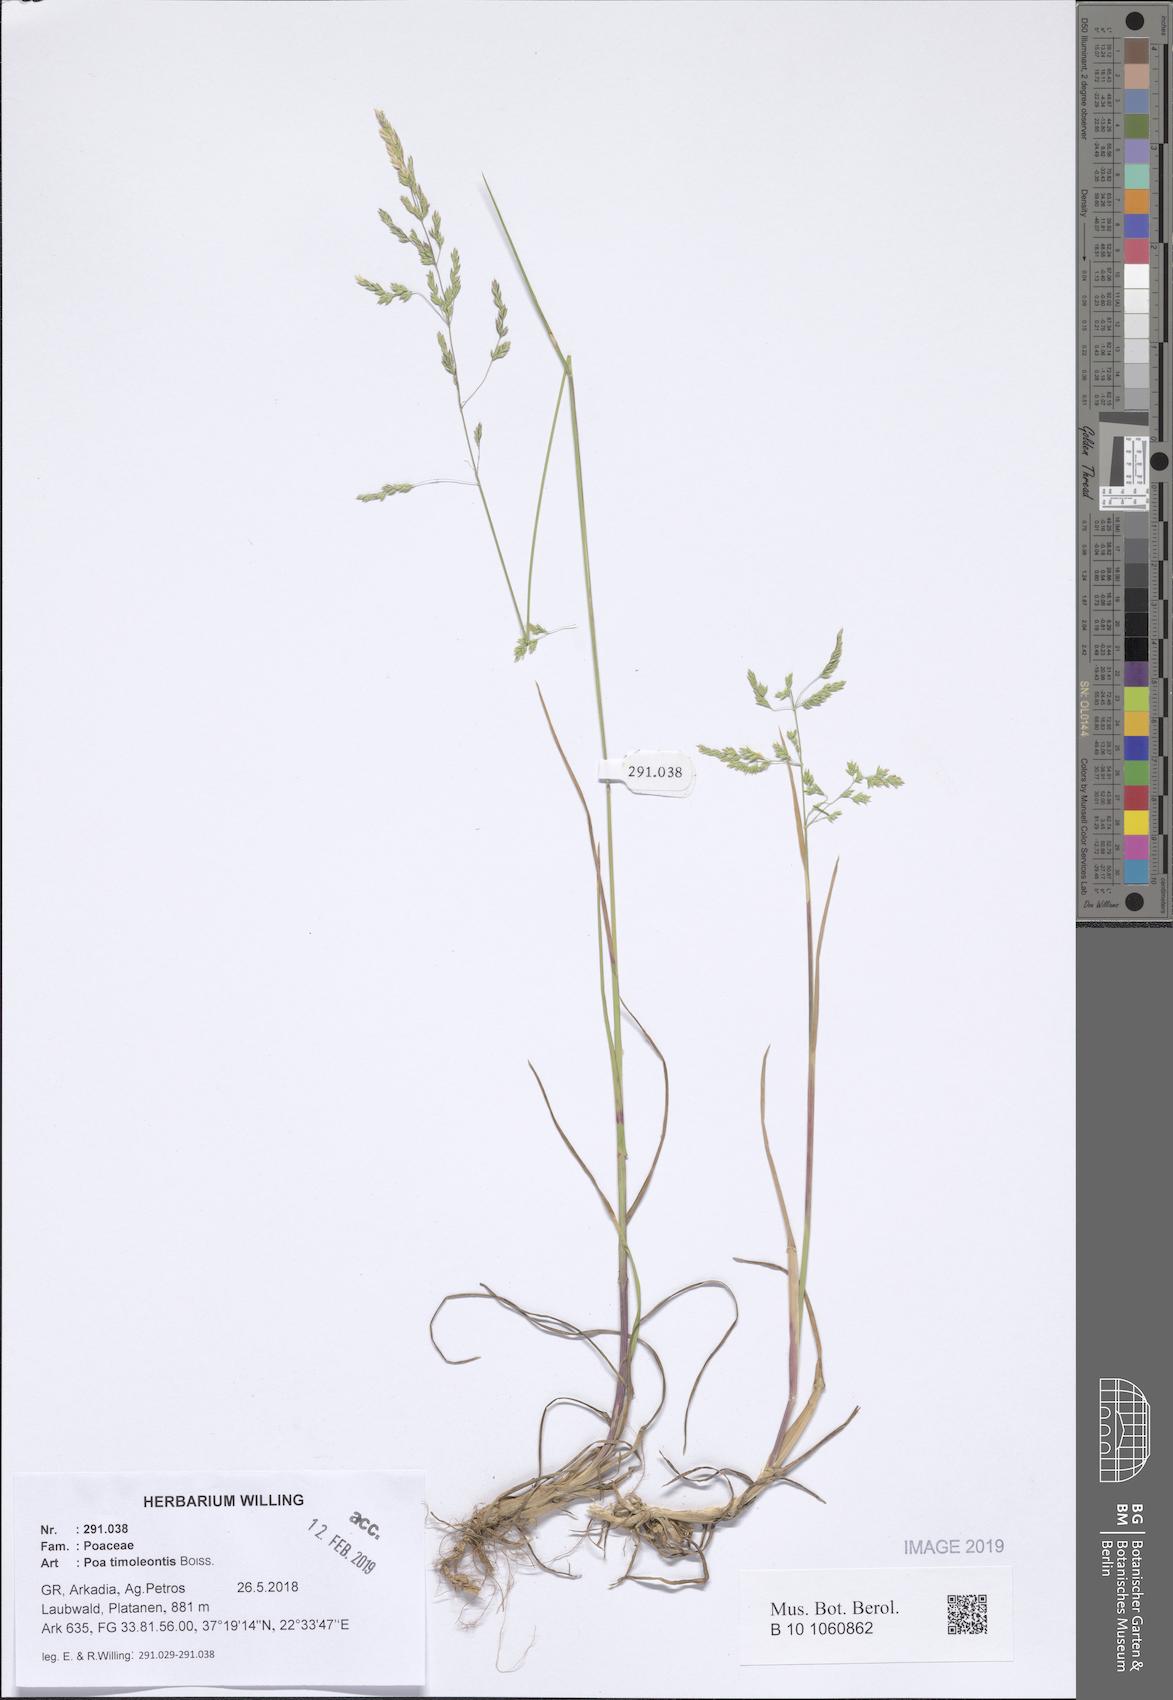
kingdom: Plantae
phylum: Tracheophyta
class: Liliopsida
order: Poales
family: Poaceae
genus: Poa
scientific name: Poa timoleontis
